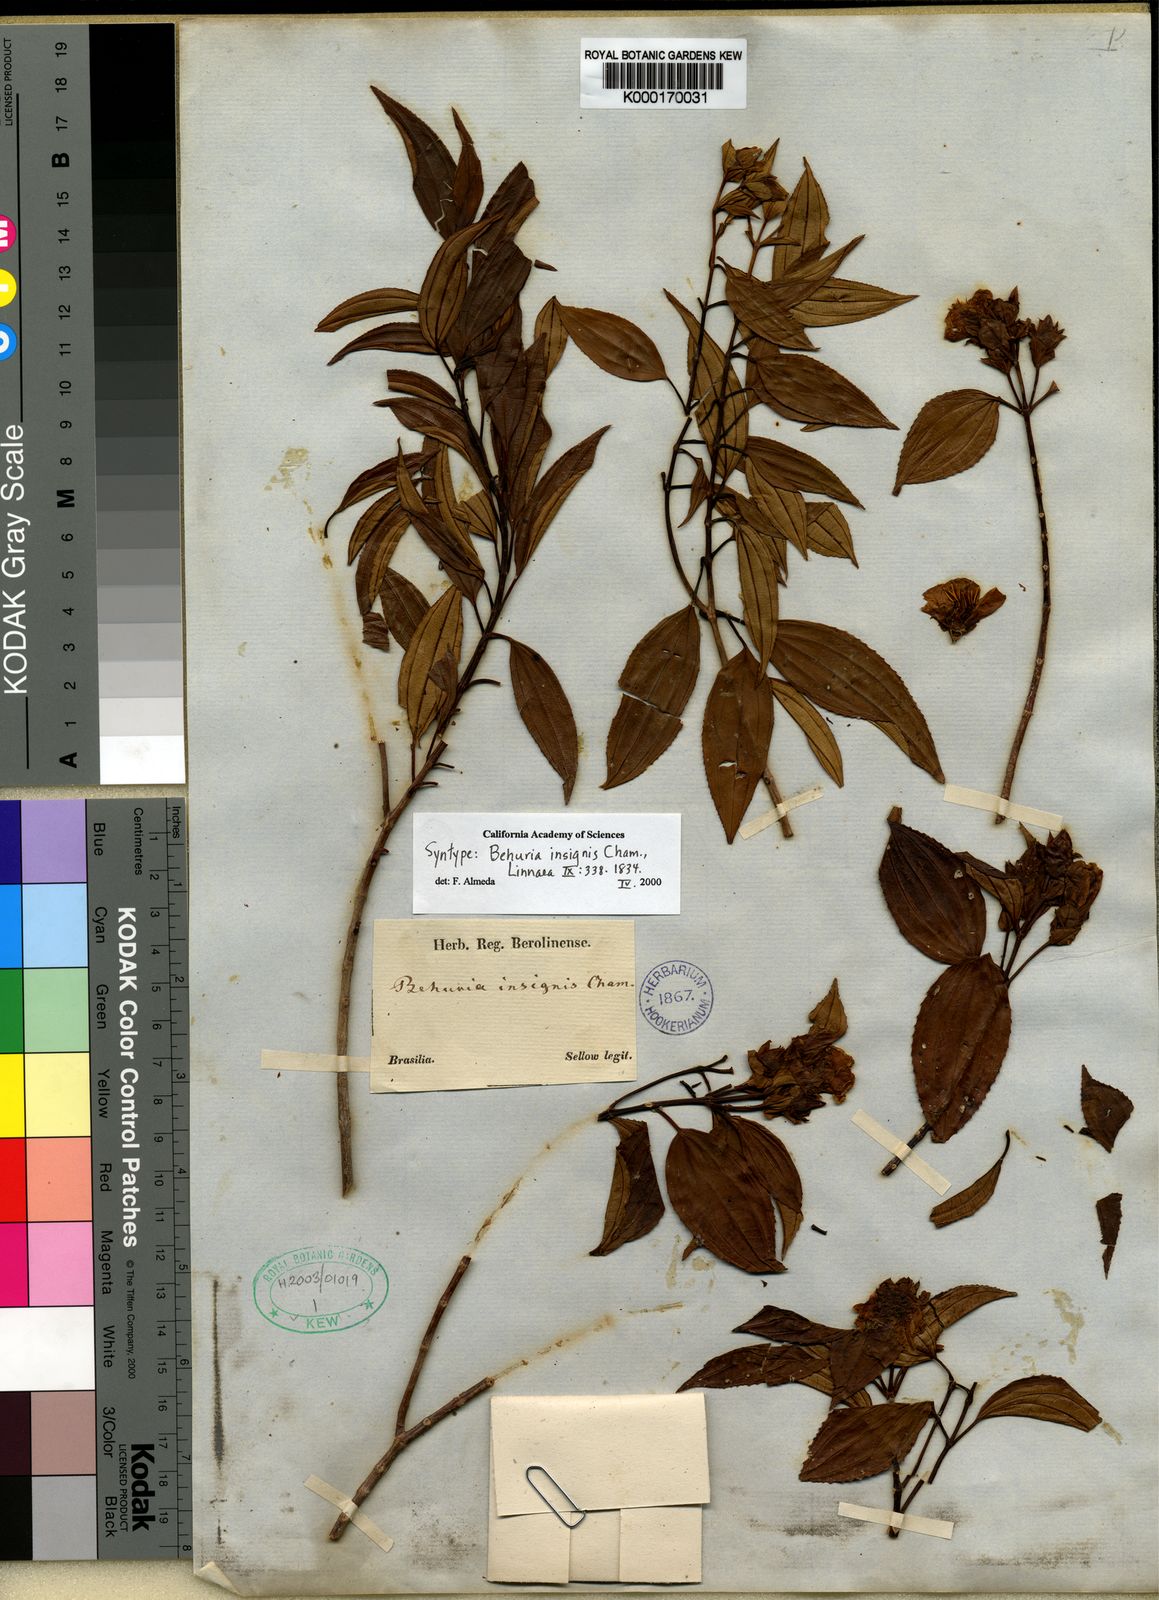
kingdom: Plantae
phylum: Tracheophyta
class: Magnoliopsida
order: Myrtales
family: Melastomataceae
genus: Huberia
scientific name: Huberia insignis
